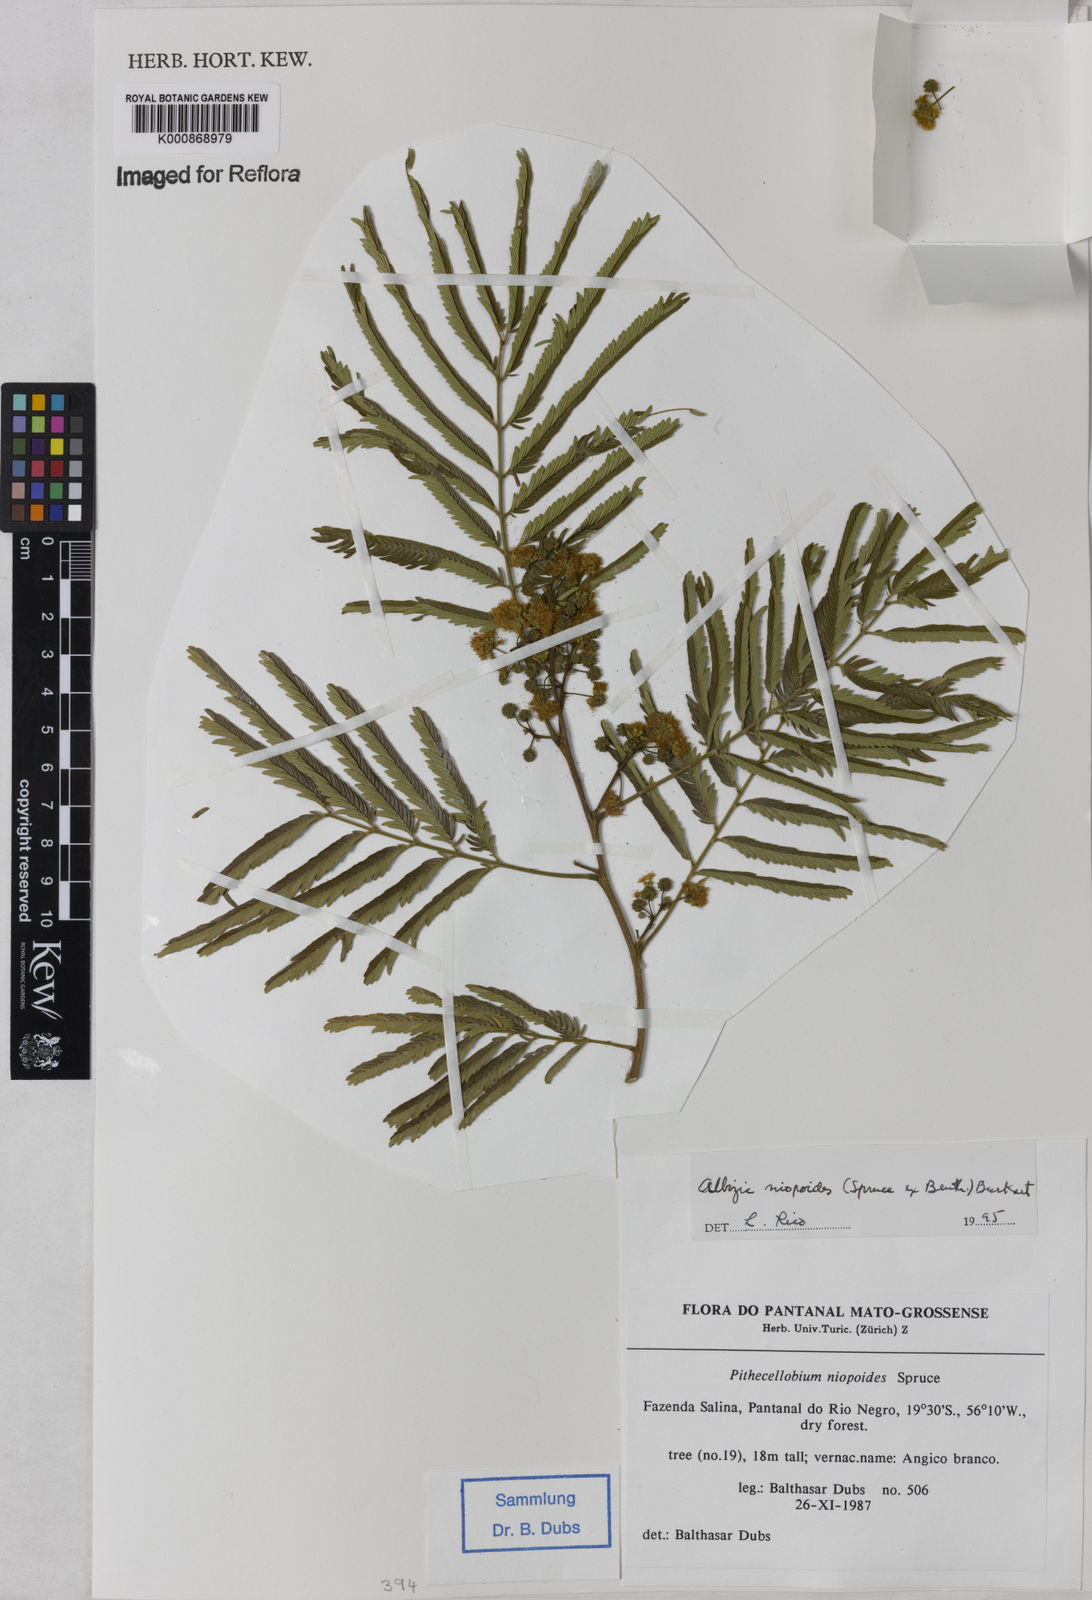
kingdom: Plantae
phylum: Tracheophyta
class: Magnoliopsida
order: Fabales
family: Fabaceae
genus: Albizia
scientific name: Albizia niopoides
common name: Silk tree
